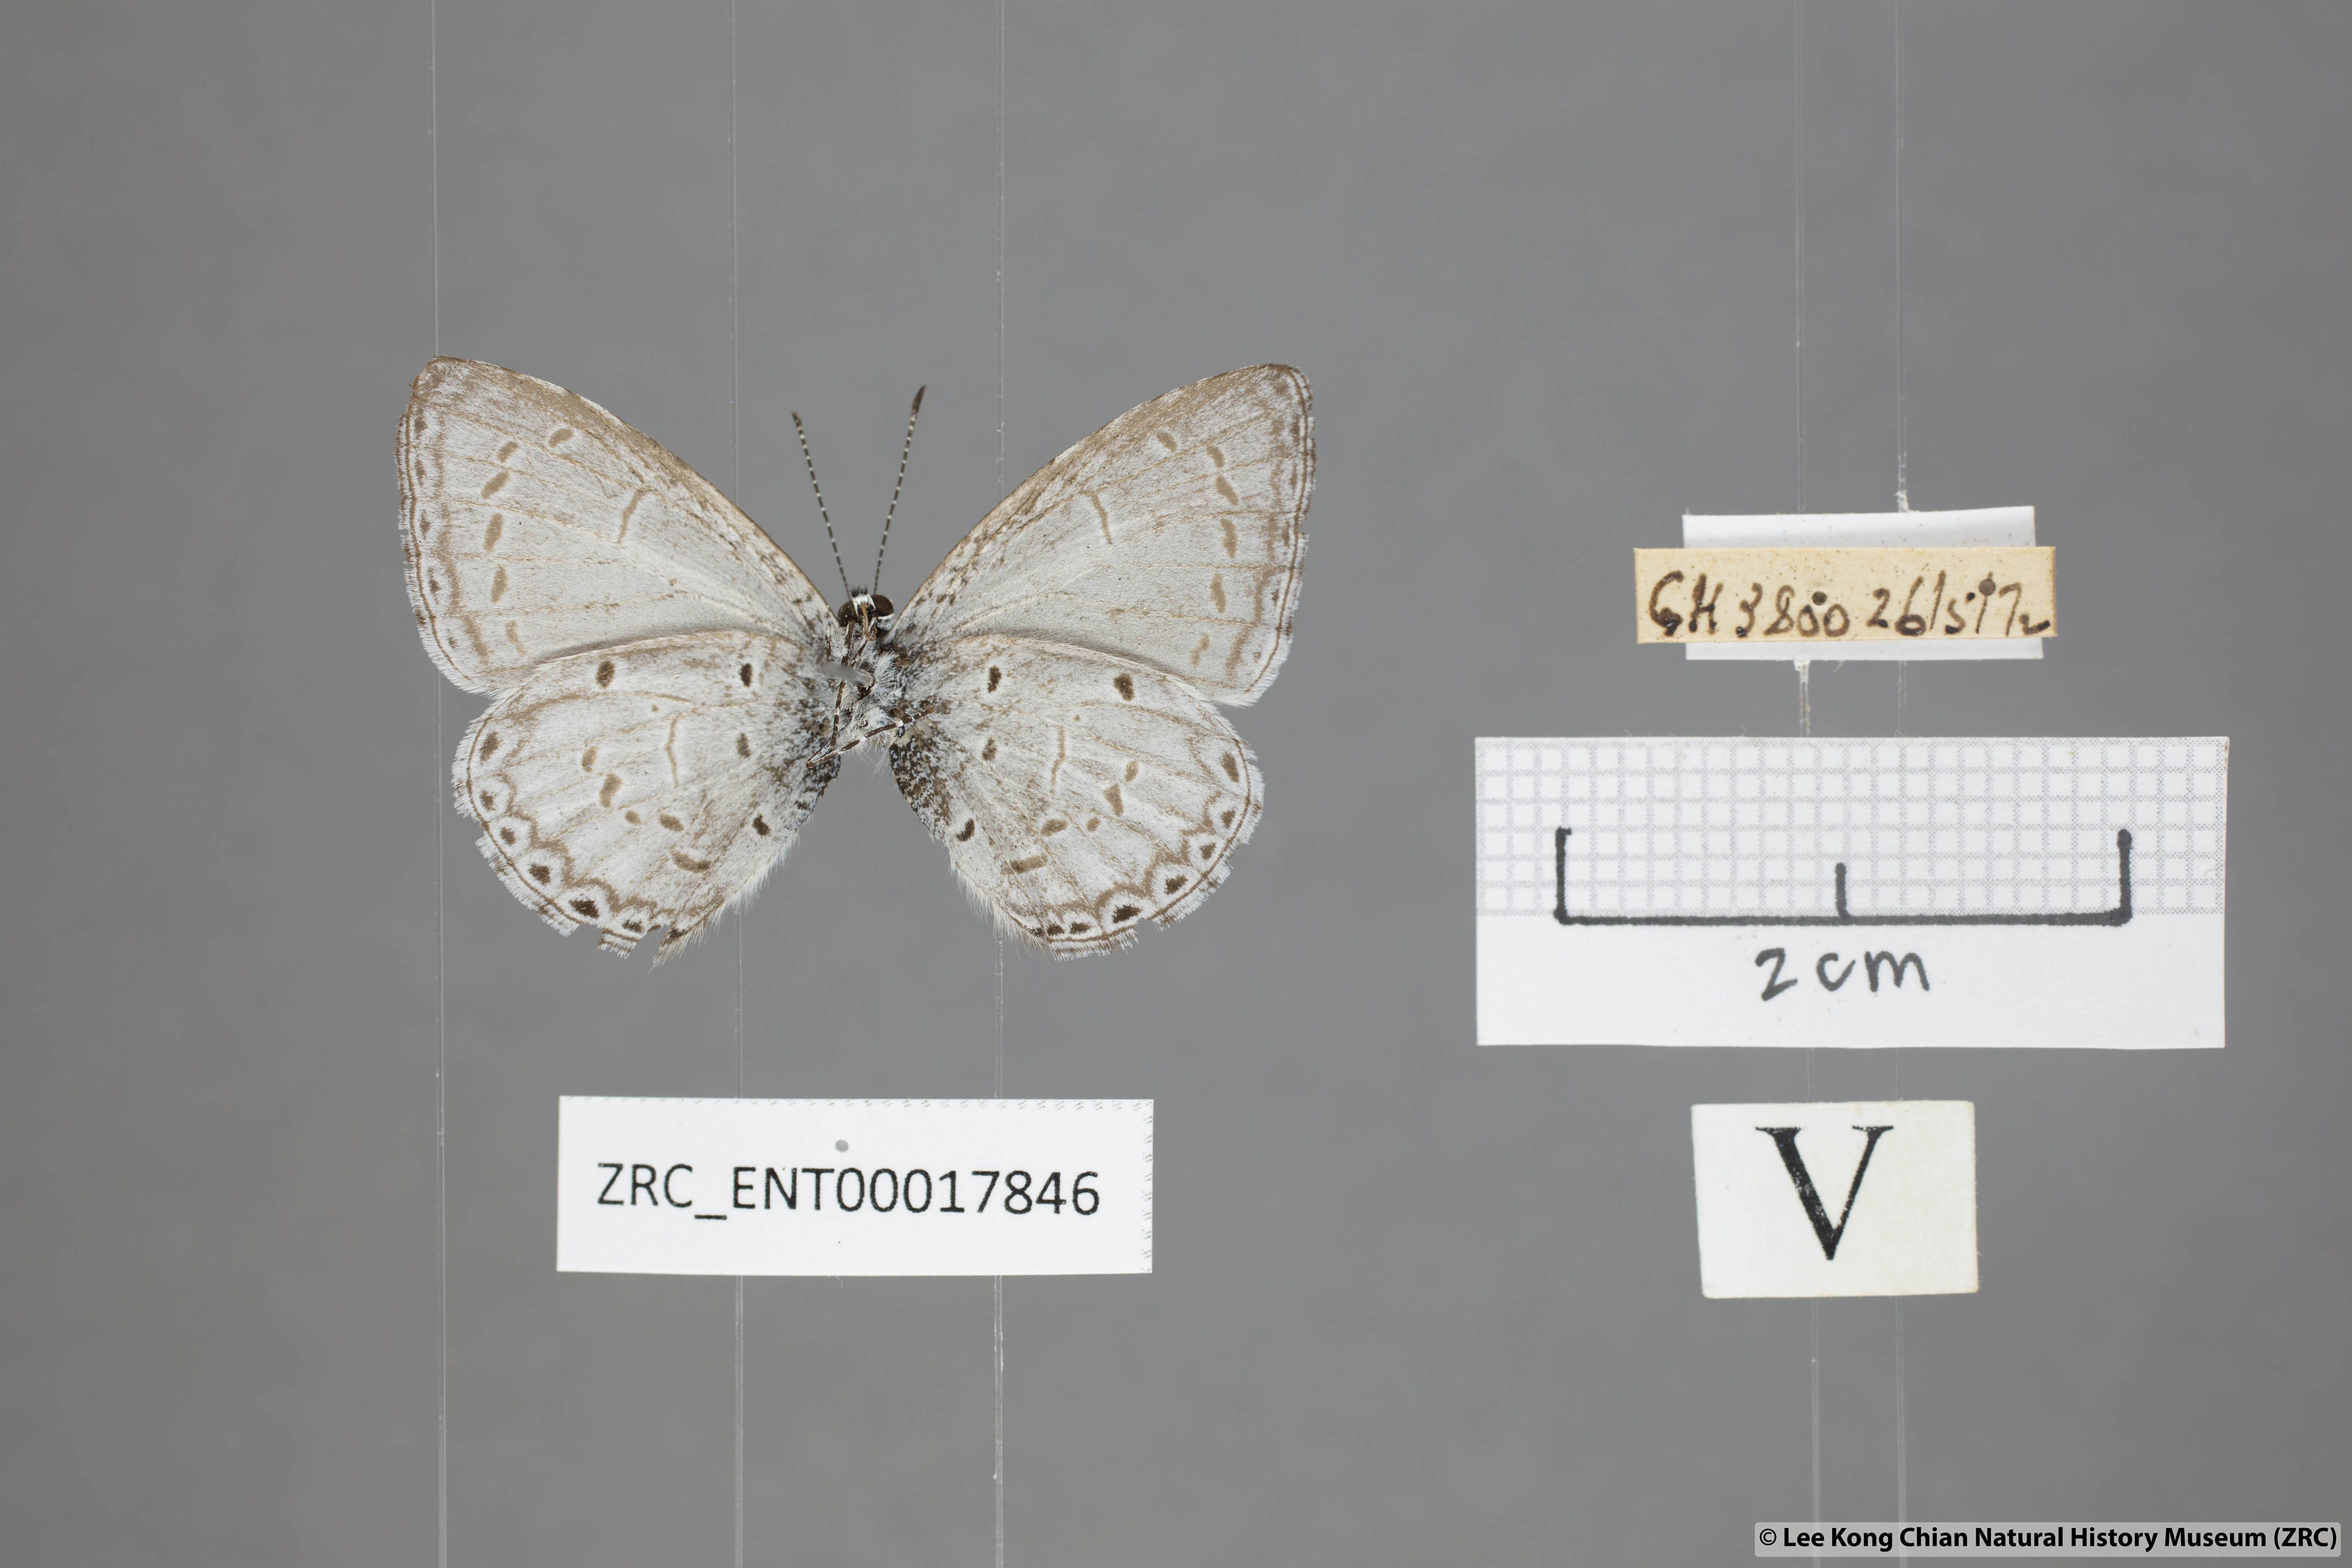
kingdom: Animalia
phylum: Arthropoda
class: Insecta
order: Lepidoptera
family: Lycaenidae
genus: Udara
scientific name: Udara
